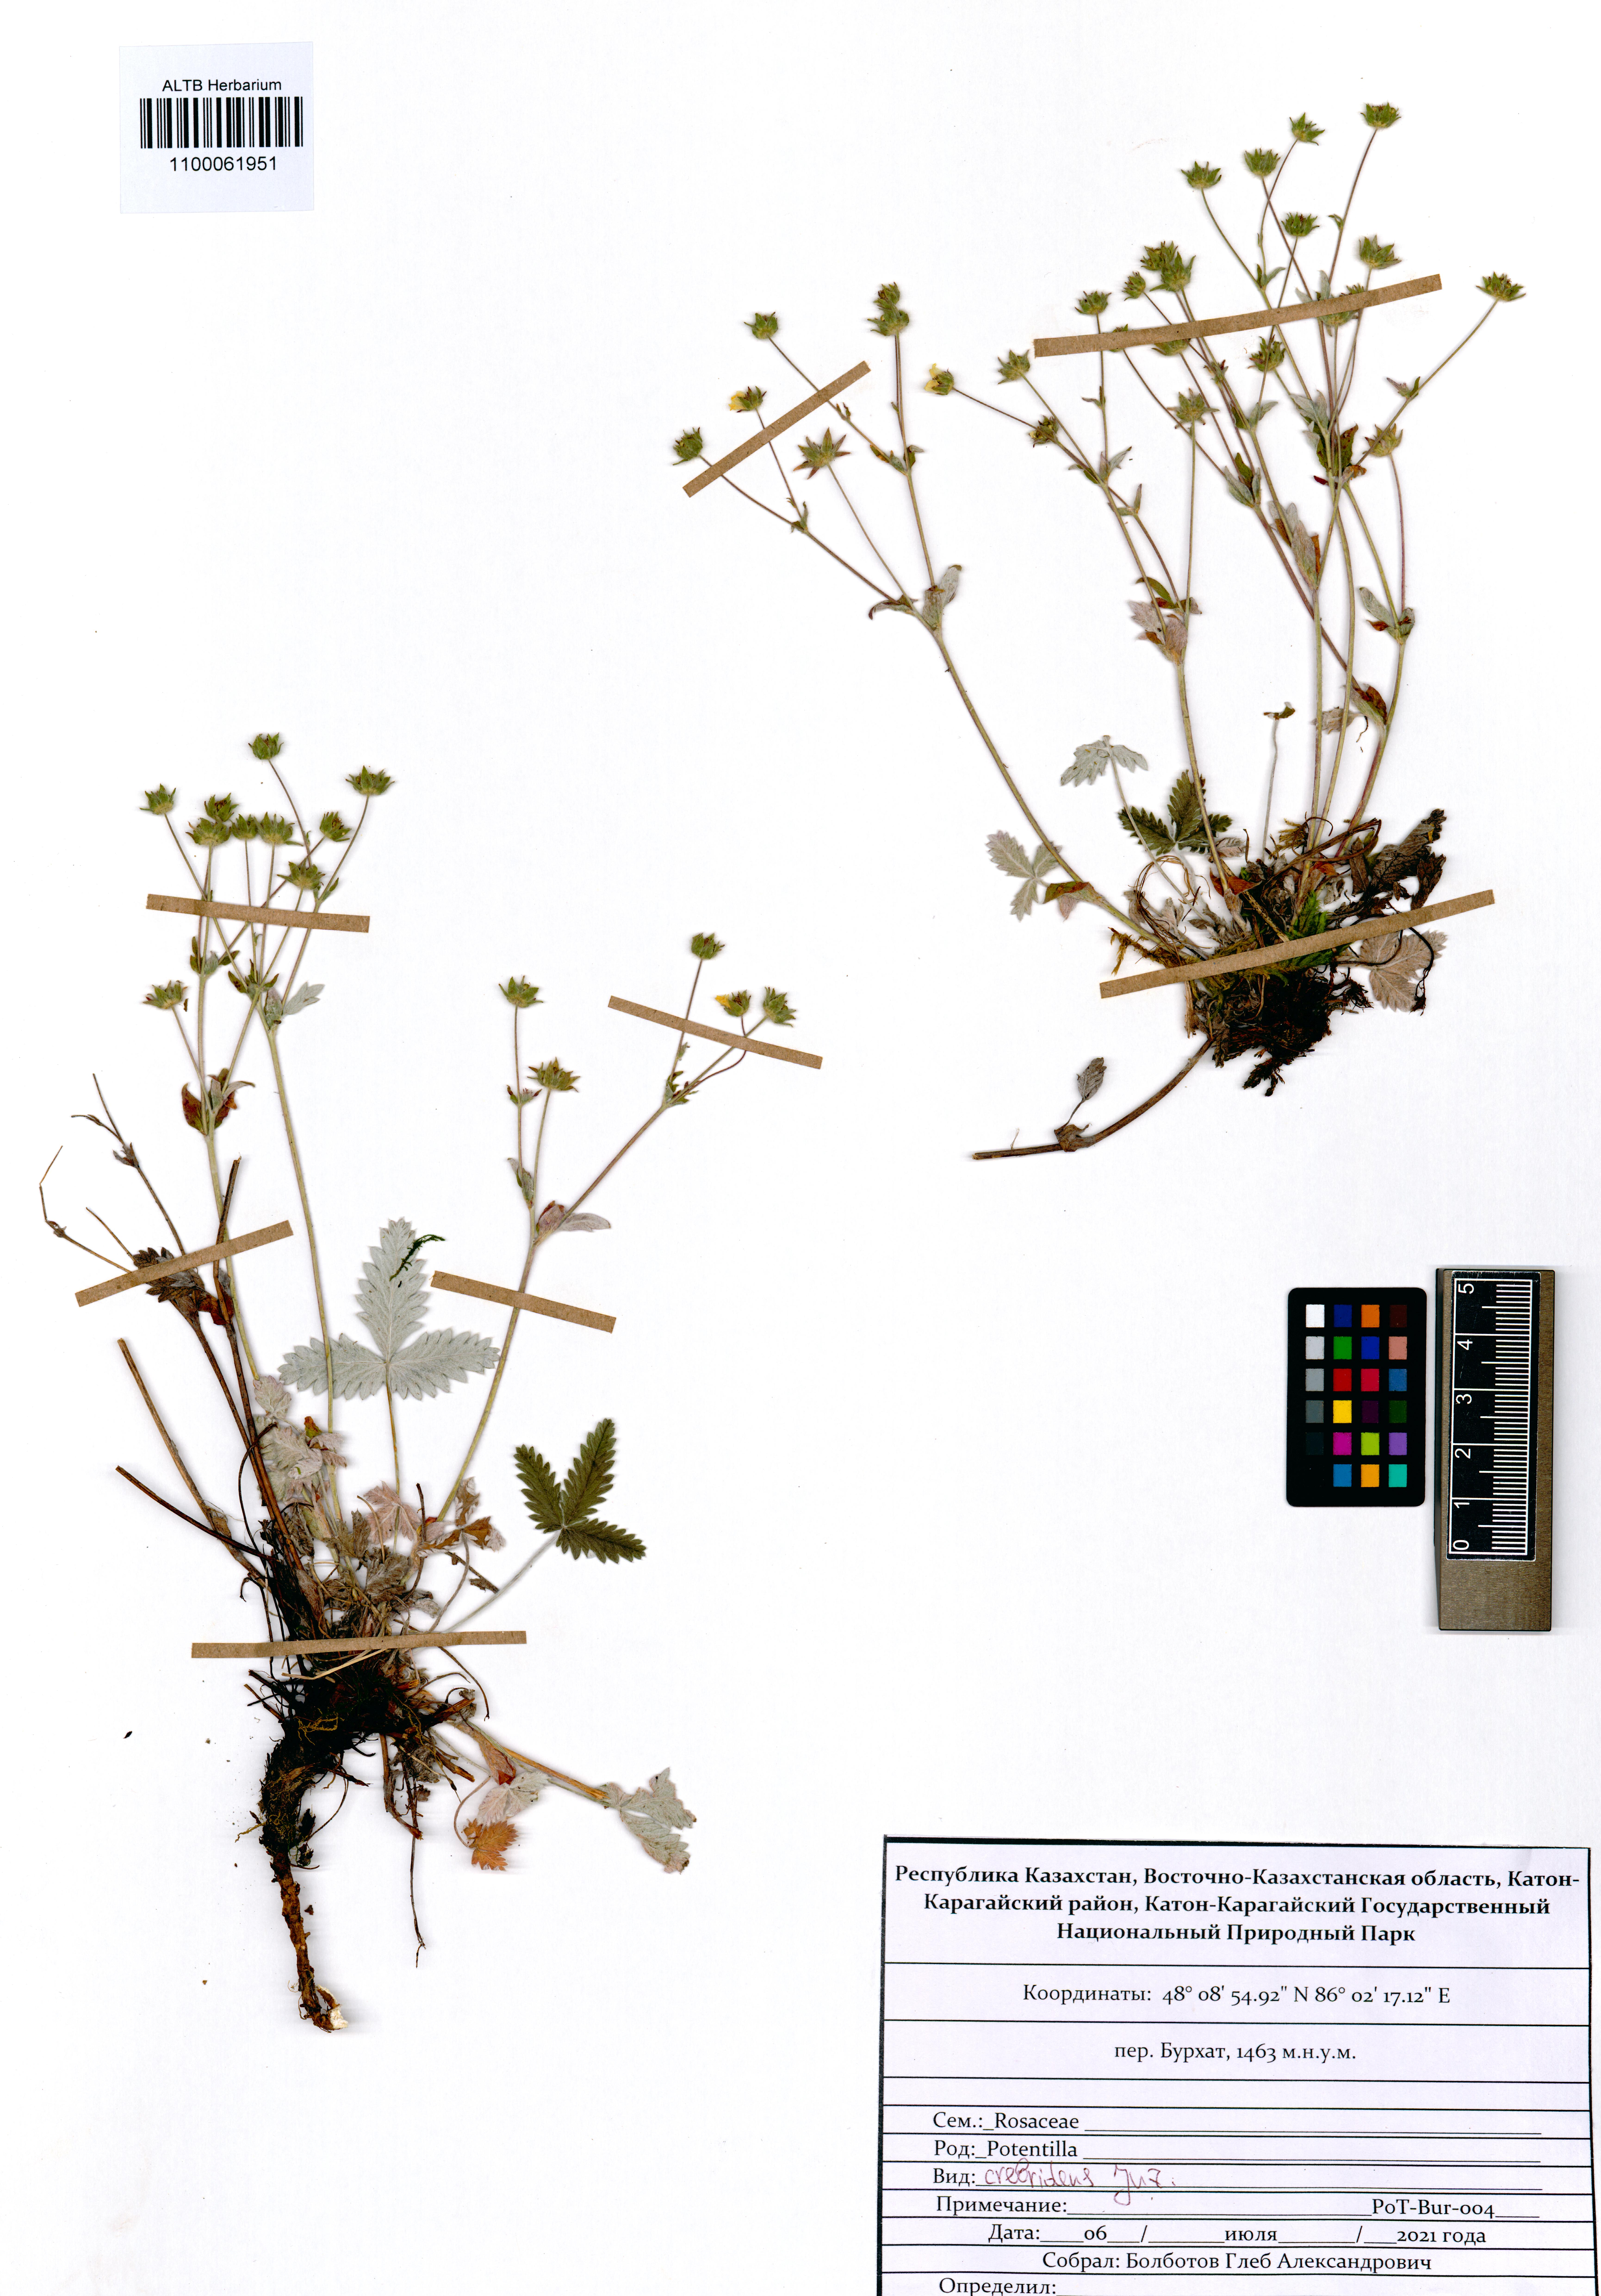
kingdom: Plantae
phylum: Tracheophyta
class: Magnoliopsida
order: Rosales
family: Rosaceae
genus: Potentilla
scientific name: Potentilla crebridens
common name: Congested cinquefoil
